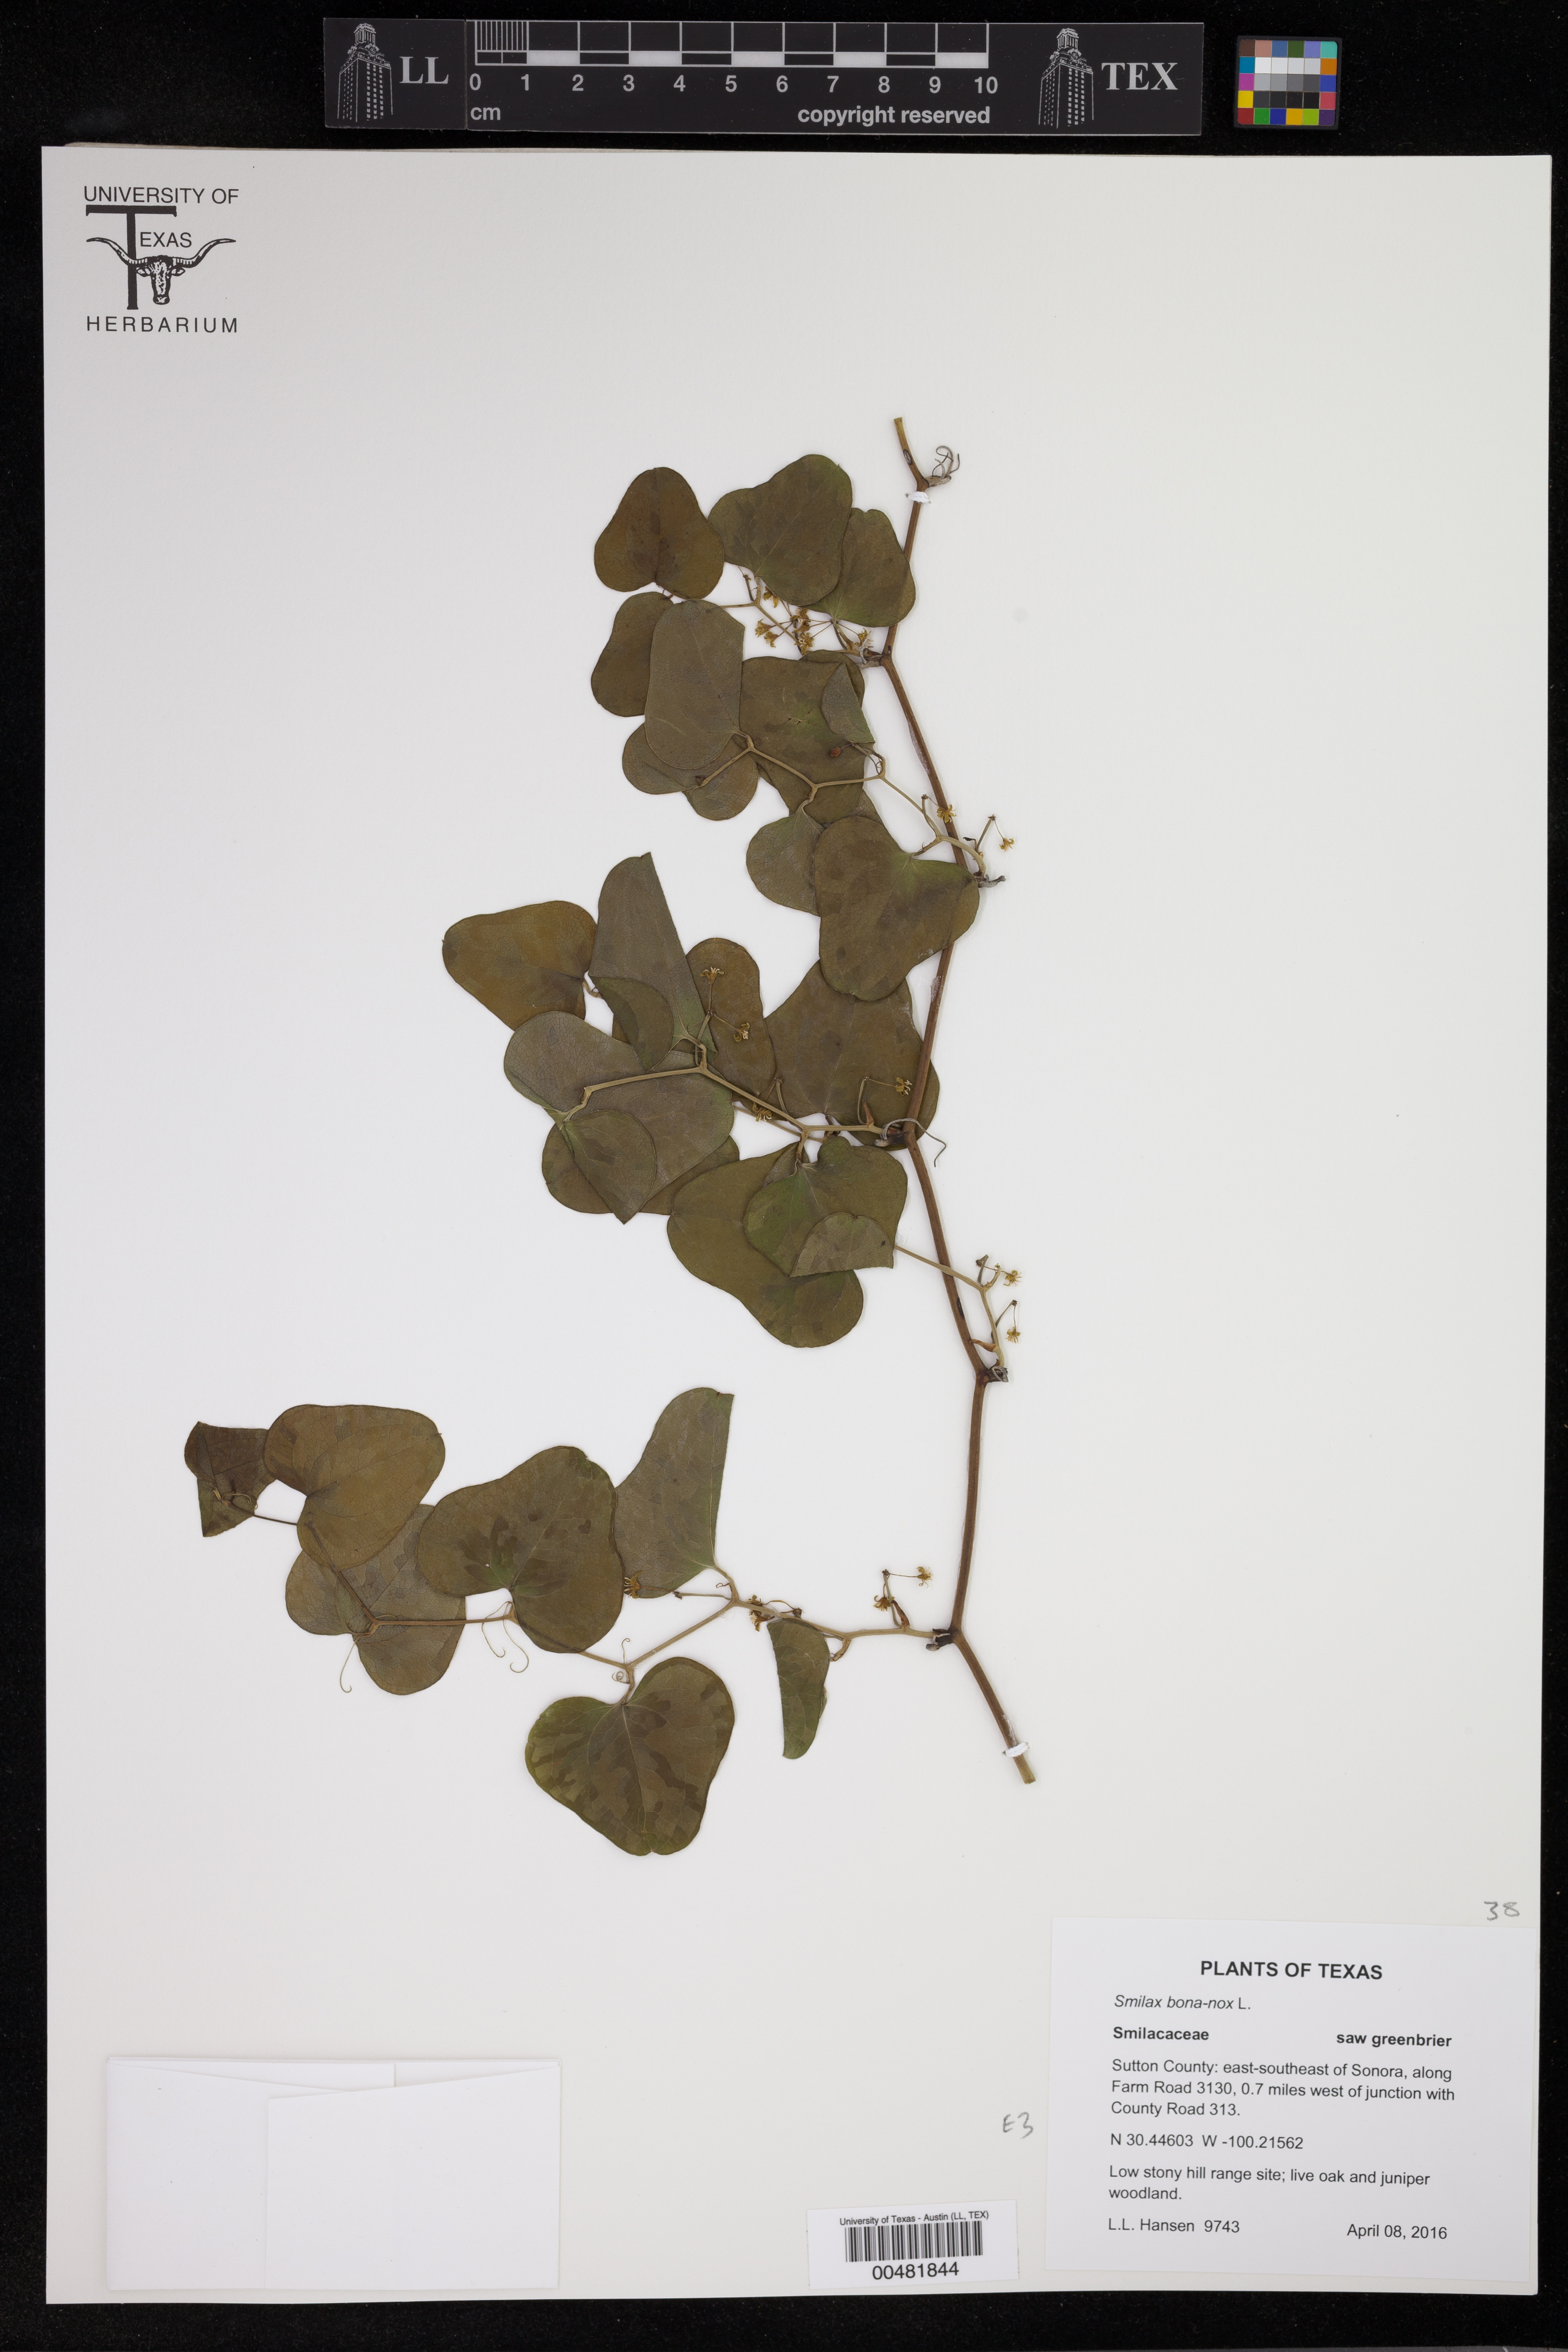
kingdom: Plantae
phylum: Tracheophyta
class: Liliopsida
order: Liliales
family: Smilacaceae
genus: Smilax
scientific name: Smilax bona-nox
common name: Catbrier
